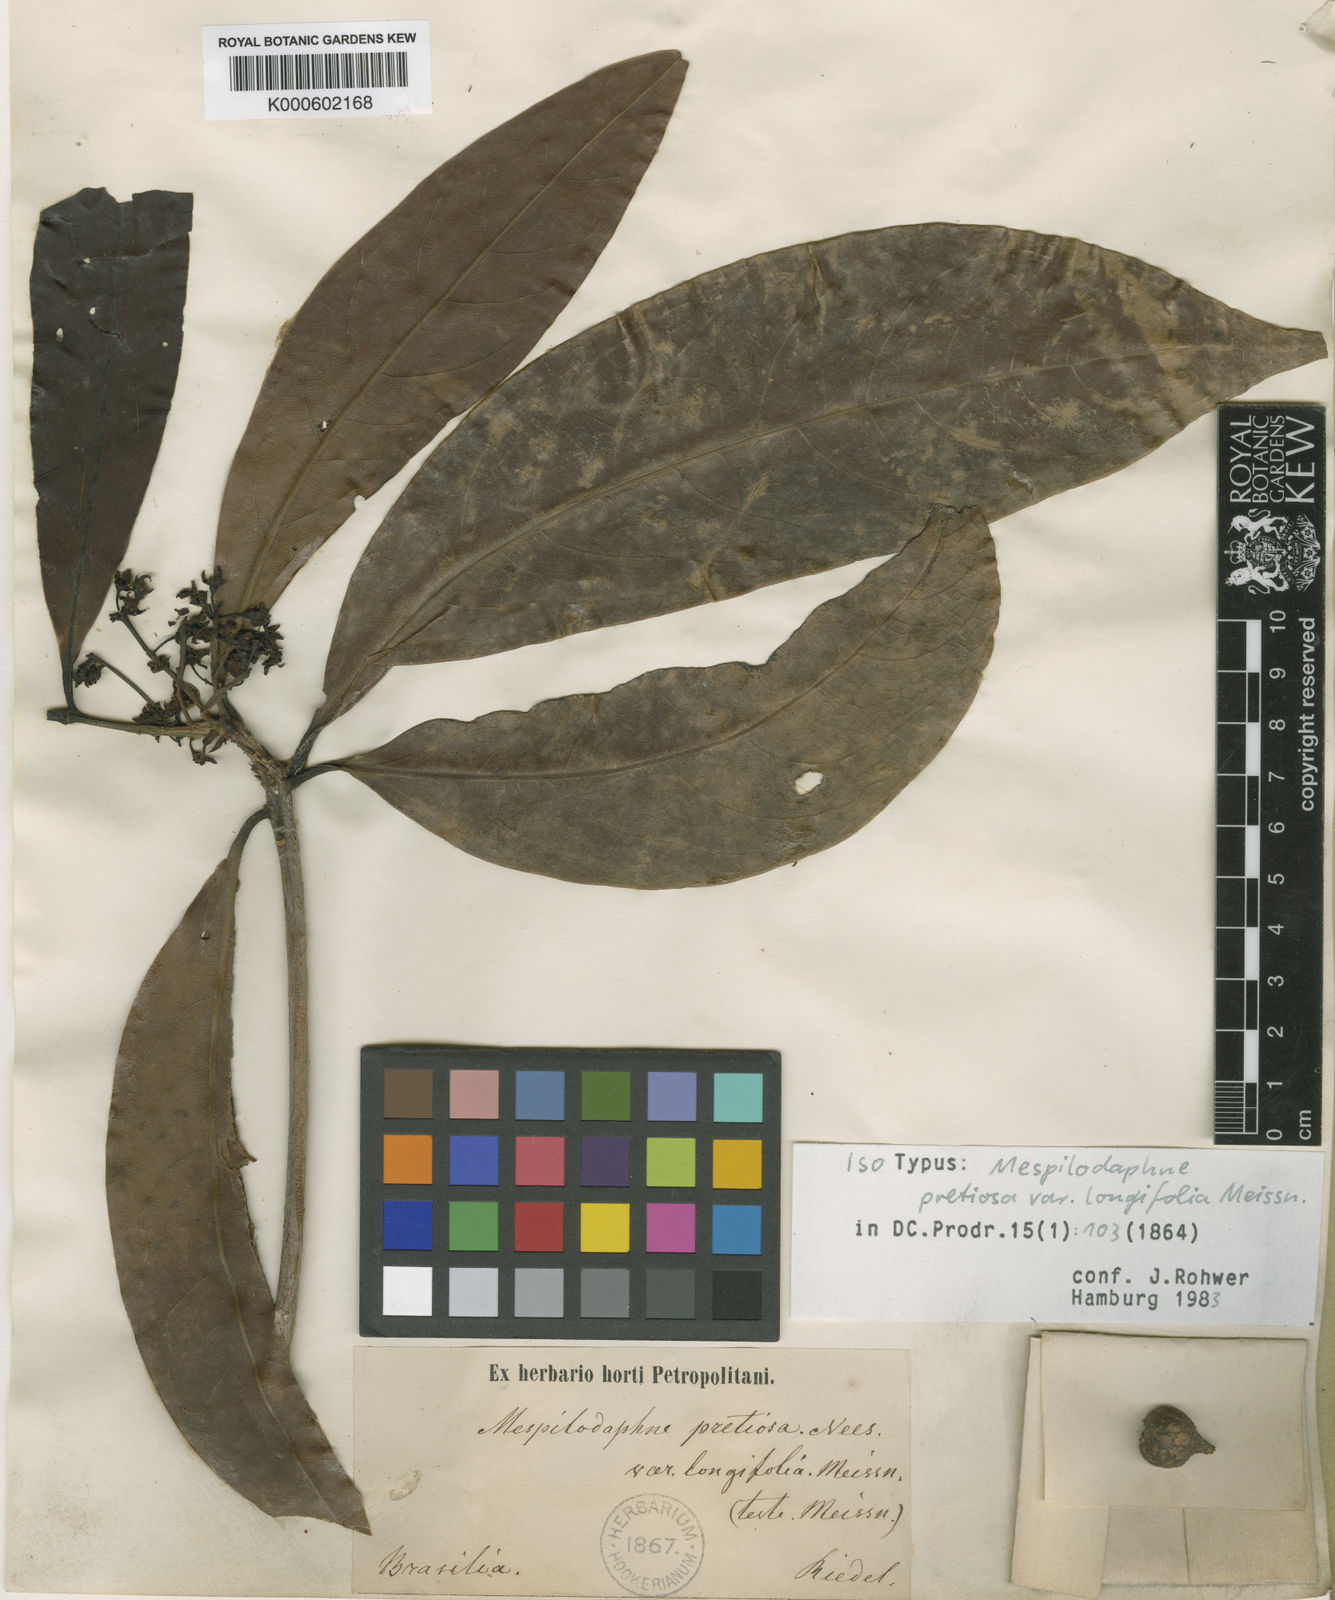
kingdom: Plantae
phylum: Tracheophyta
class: Magnoliopsida
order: Laurales
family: Lauraceae
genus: Mespilodaphne
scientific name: Mespilodaphne quixos
